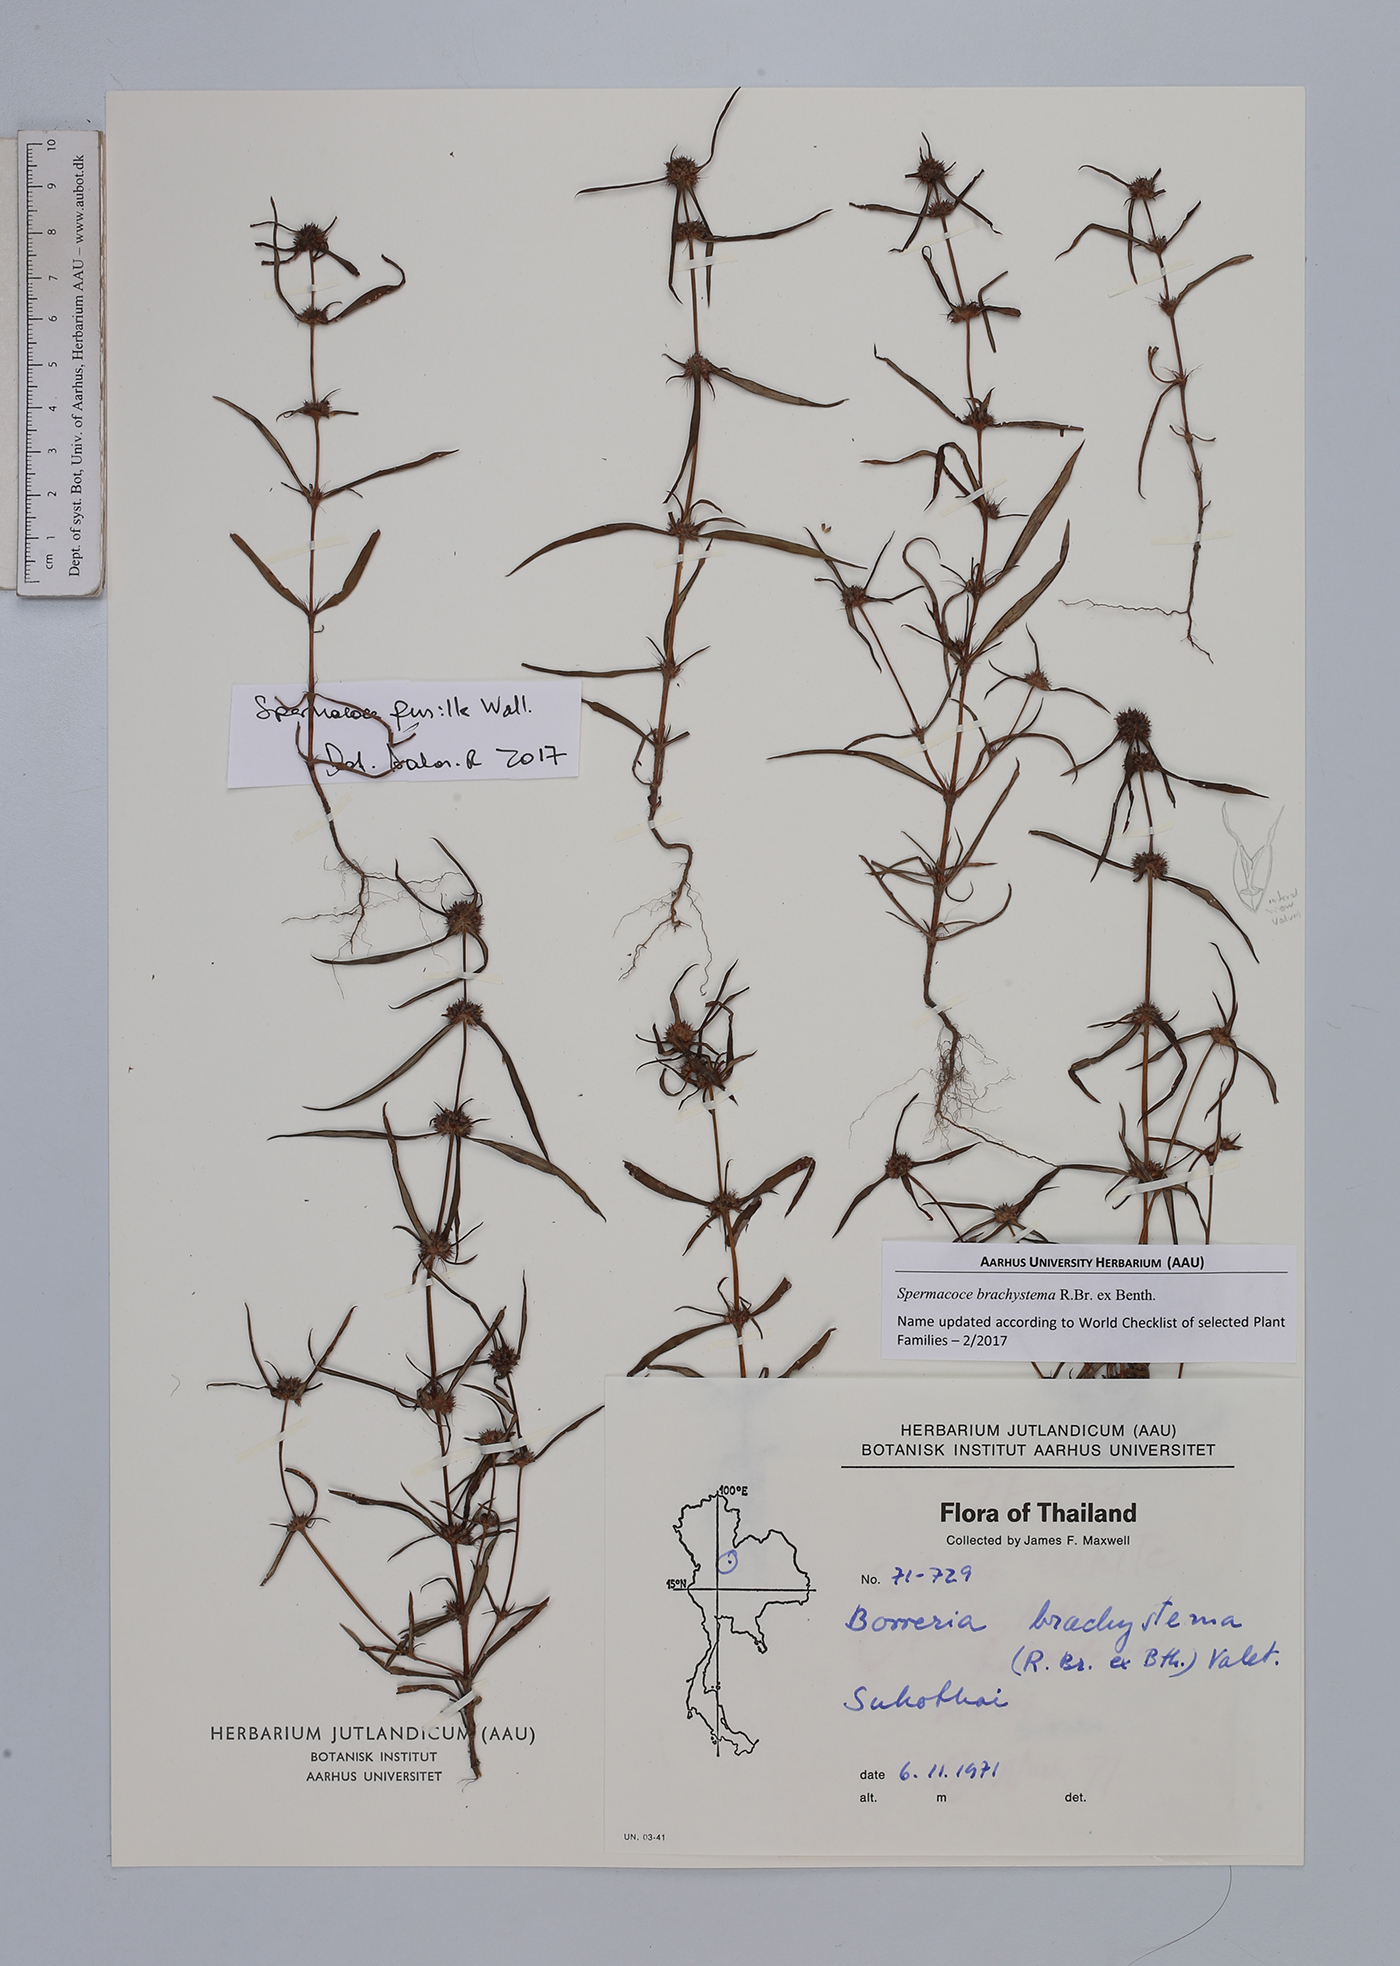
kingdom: Plantae
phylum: Tracheophyta
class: Magnoliopsida
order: Gentianales
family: Rubiaceae
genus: Spermacoce
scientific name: Spermacoce pusilla
